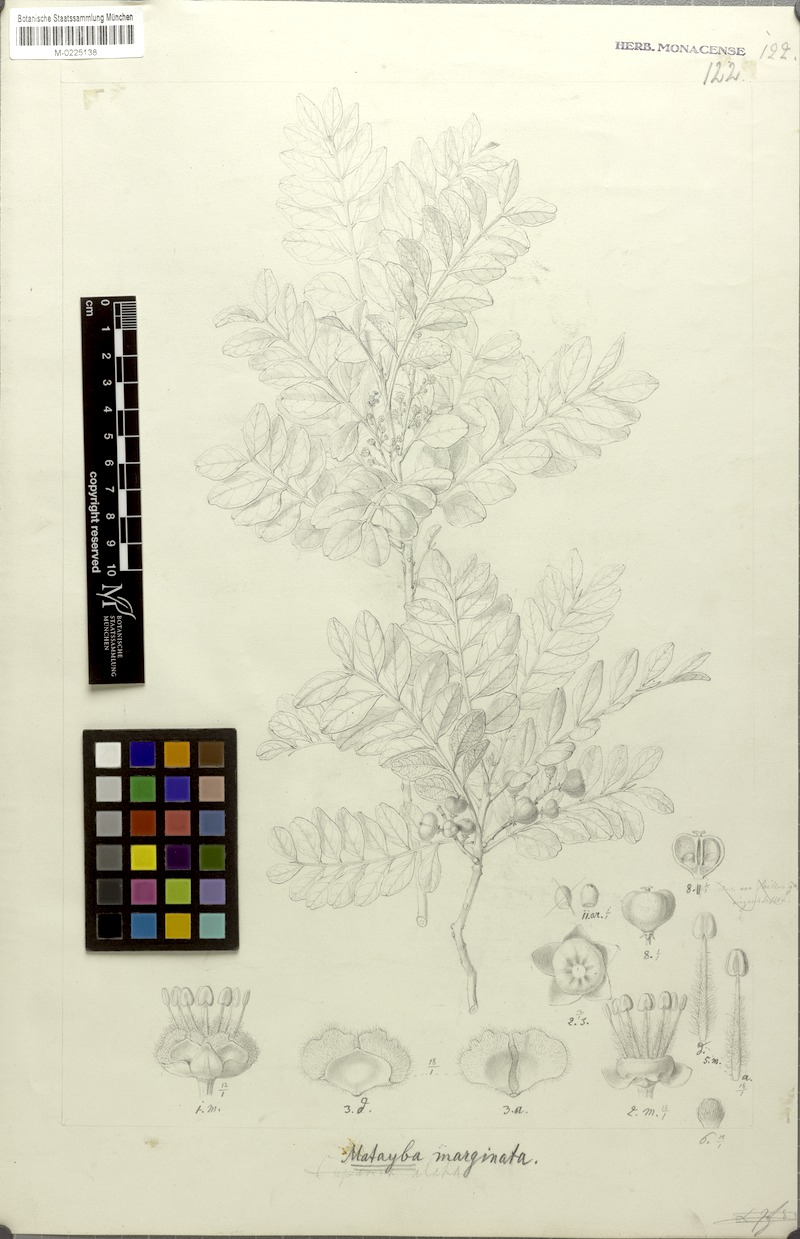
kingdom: Plantae
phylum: Tracheophyta
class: Magnoliopsida
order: Sapindales
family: Sapindaceae
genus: Matayba
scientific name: Matayba marginata
